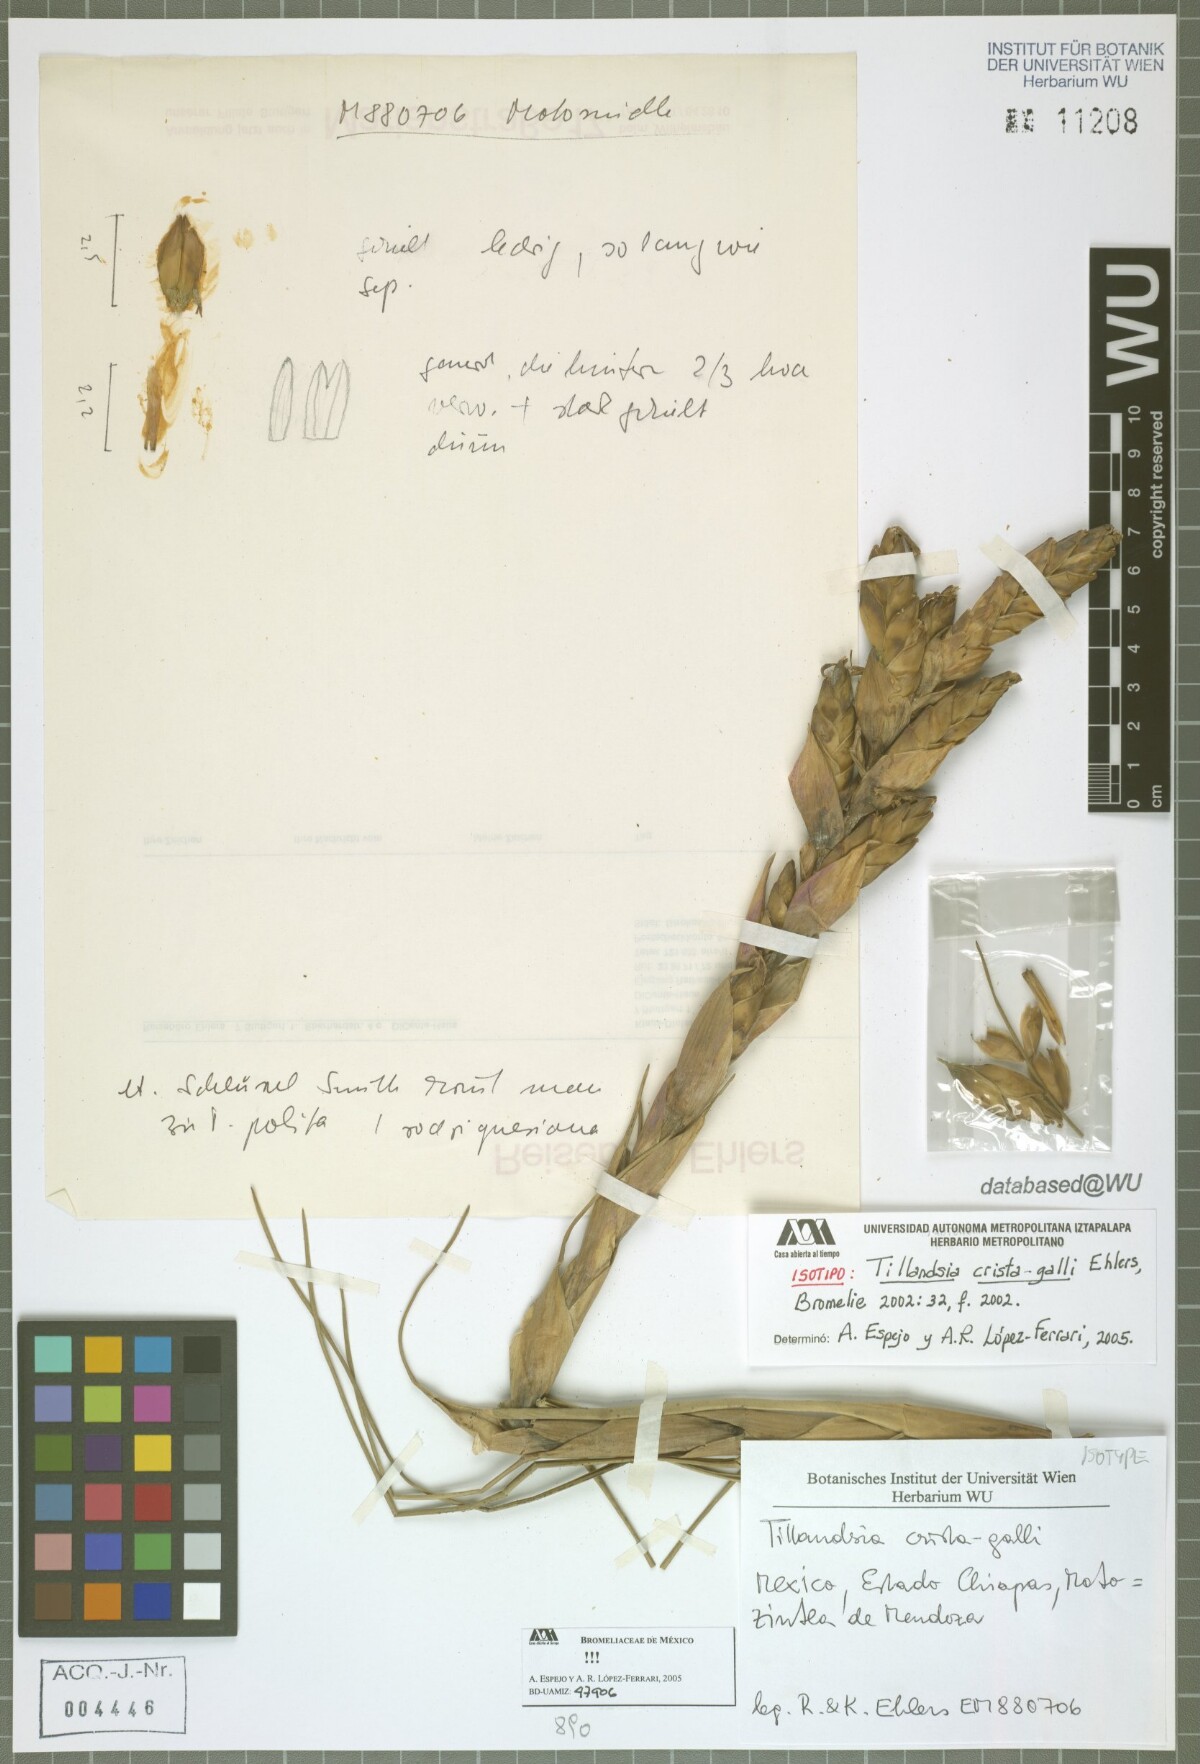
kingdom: Plantae
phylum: Tracheophyta
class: Liliopsida
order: Poales
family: Bromeliaceae
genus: Tillandsia
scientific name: Tillandsia crista-galli
